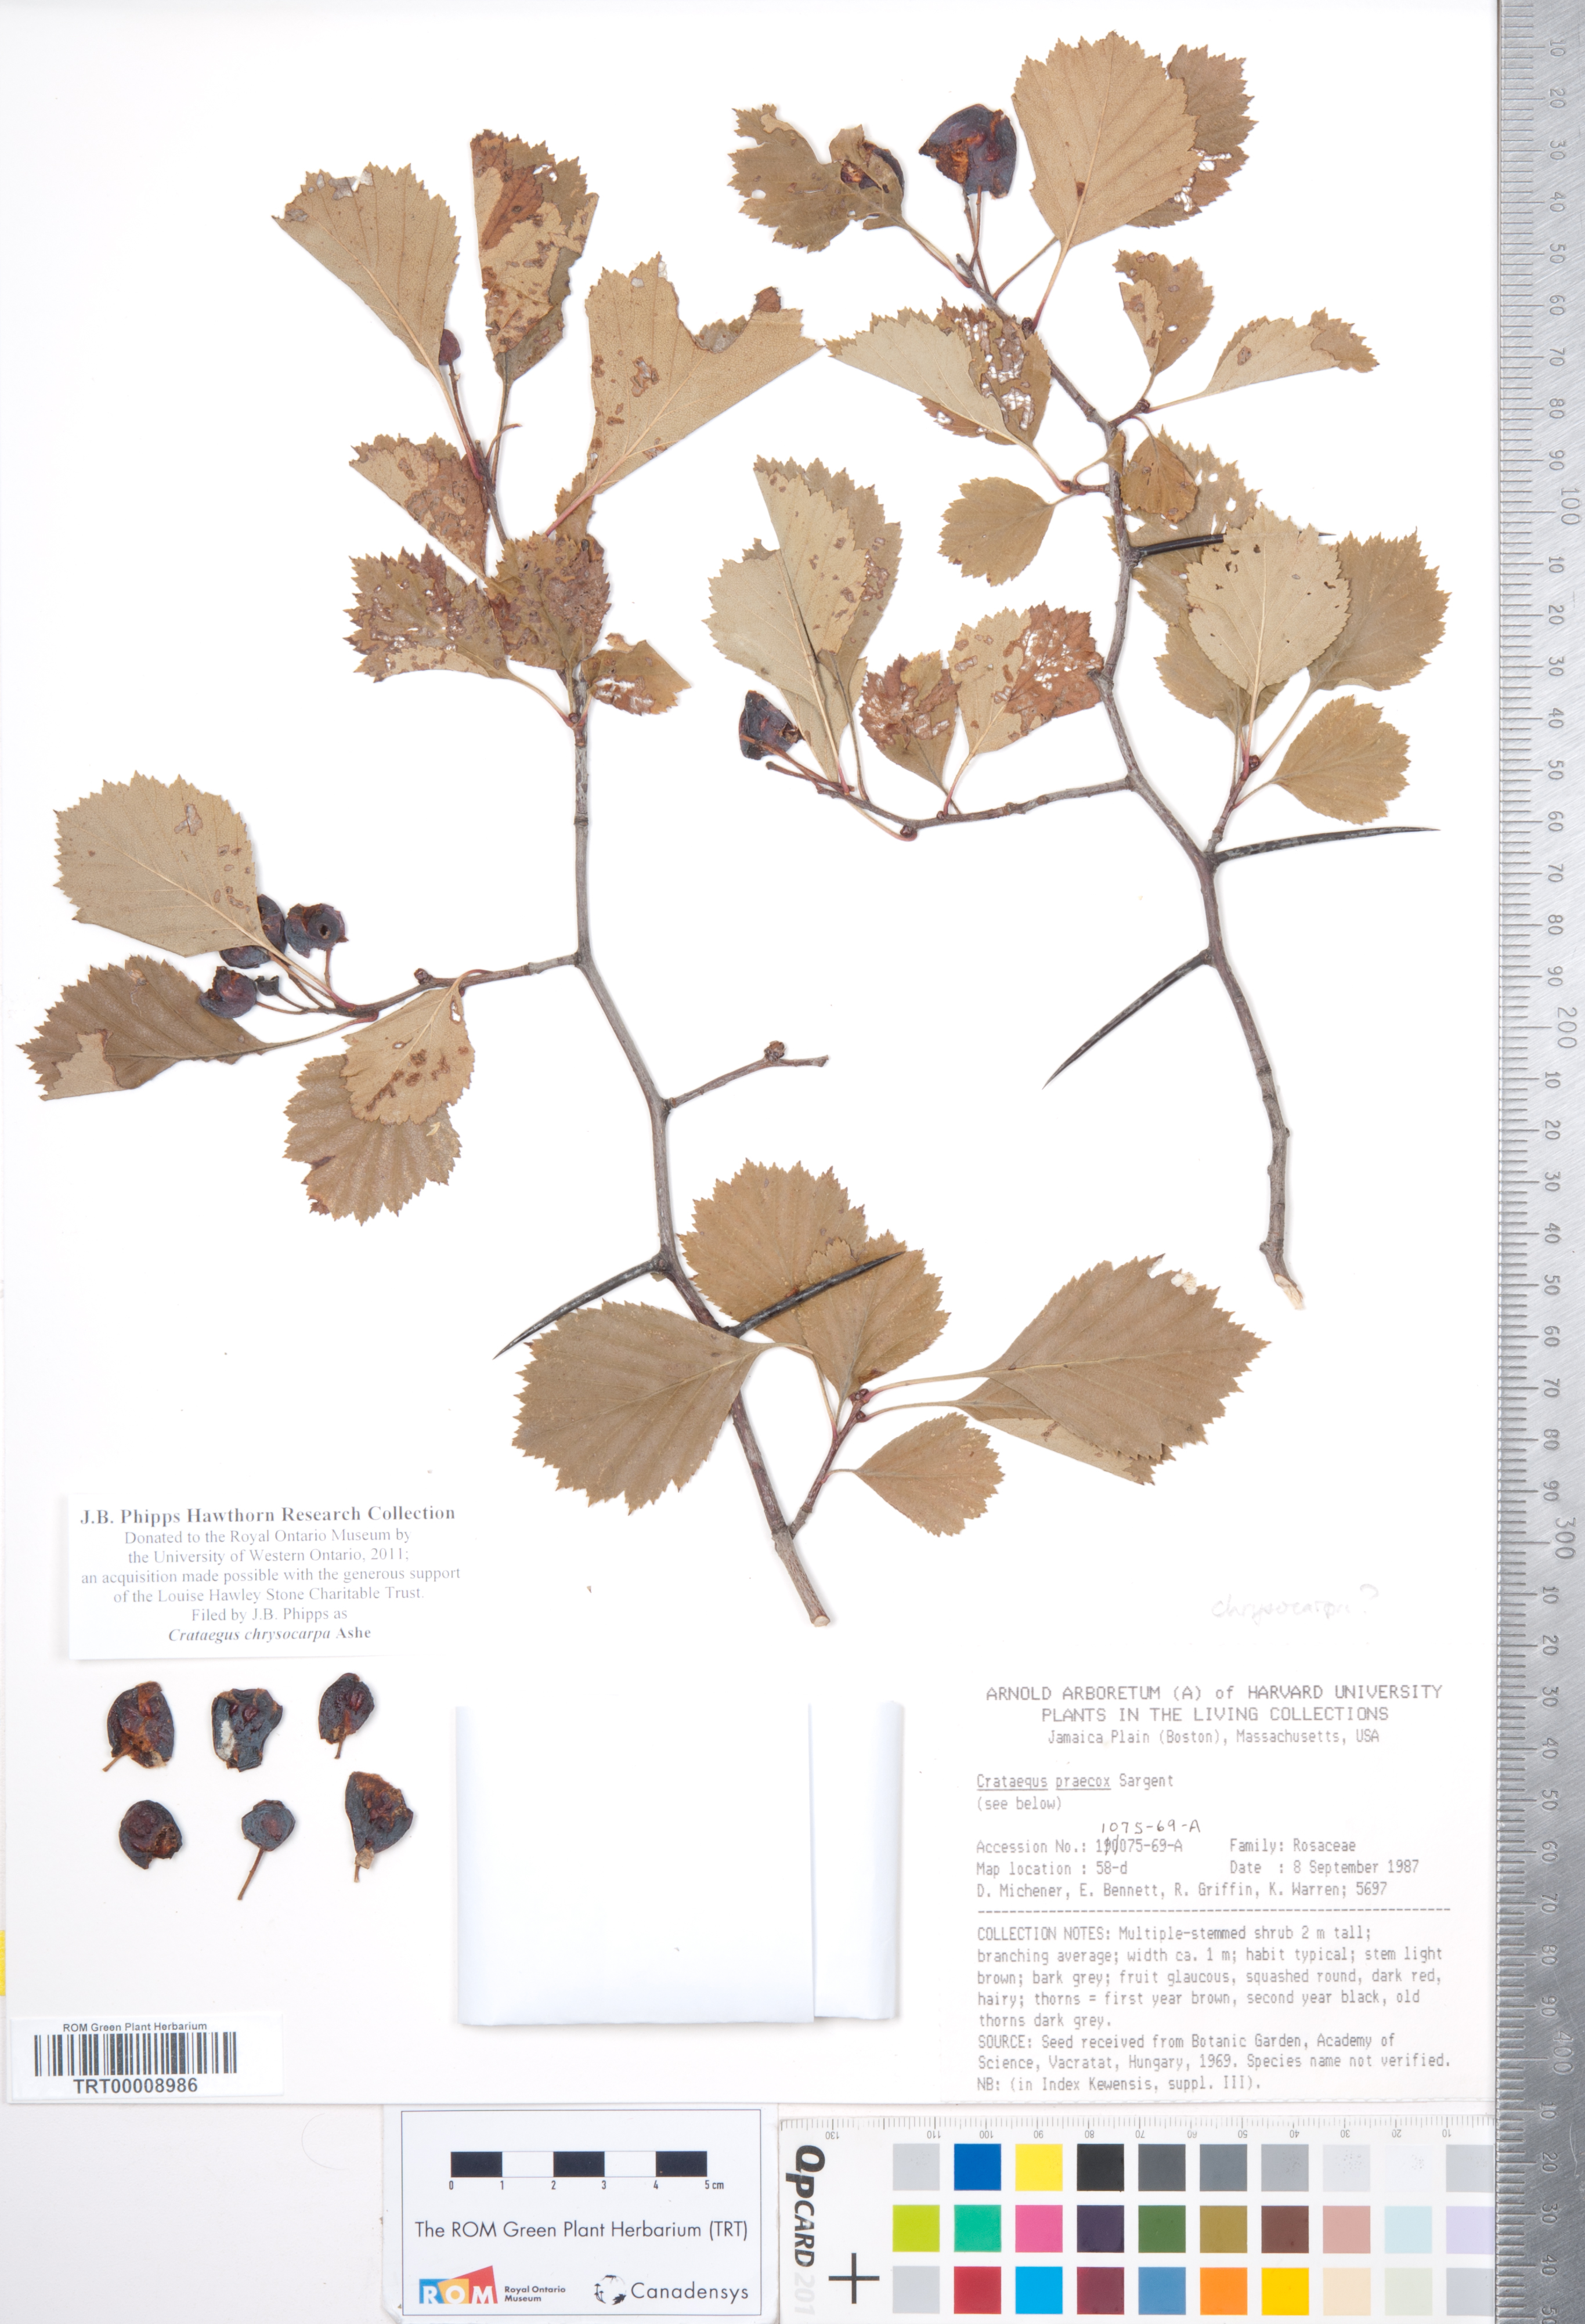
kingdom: Plantae
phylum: Tracheophyta
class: Magnoliopsida
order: Rosales
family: Rosaceae
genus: Crataegus
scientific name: Crataegus chrysocarpa
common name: Fire-berry hawthorn
